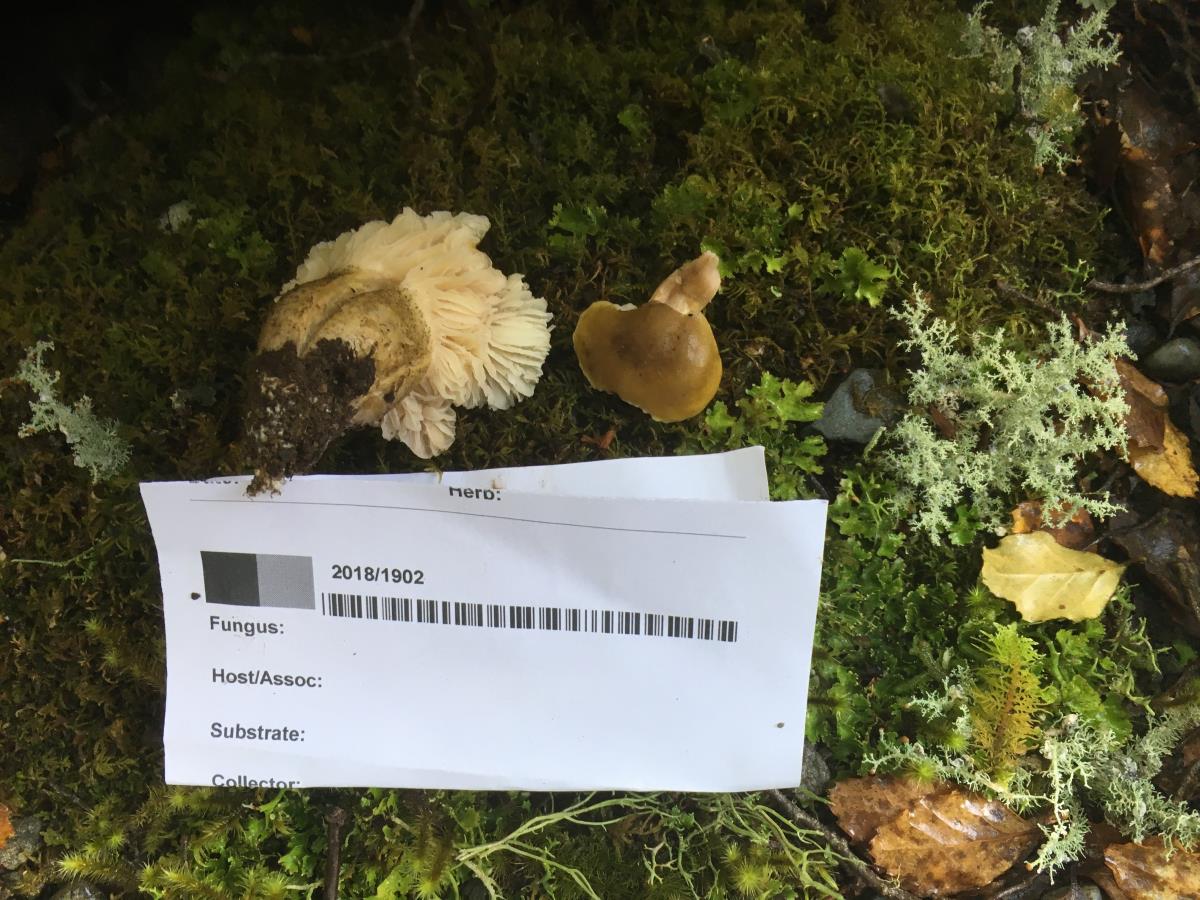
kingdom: Fungi
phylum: Basidiomycota
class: Agaricomycetes
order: Agaricales
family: Tricholomataceae
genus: Tricholoma
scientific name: Tricholoma viridiolivaceum
